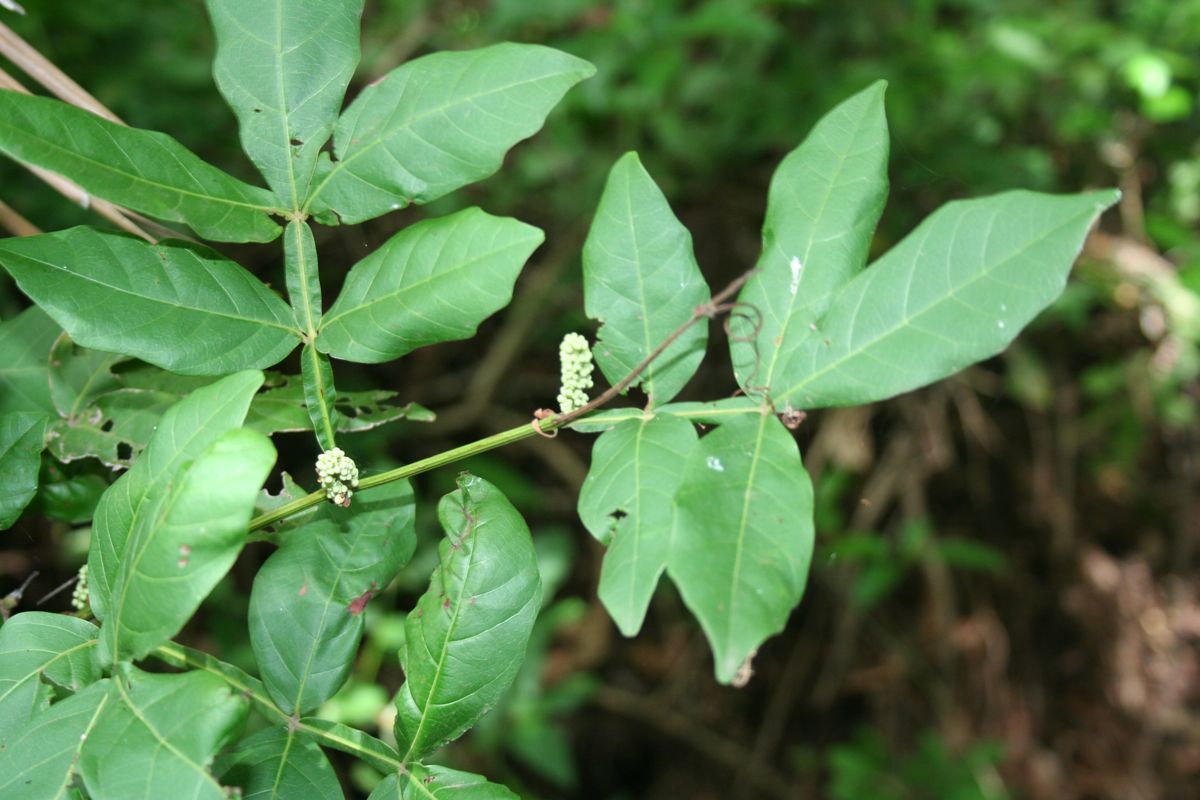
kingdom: Plantae
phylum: Tracheophyta
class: Magnoliopsida
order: Sapindales
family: Sapindaceae
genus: Paullinia
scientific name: Paullinia clavigera
